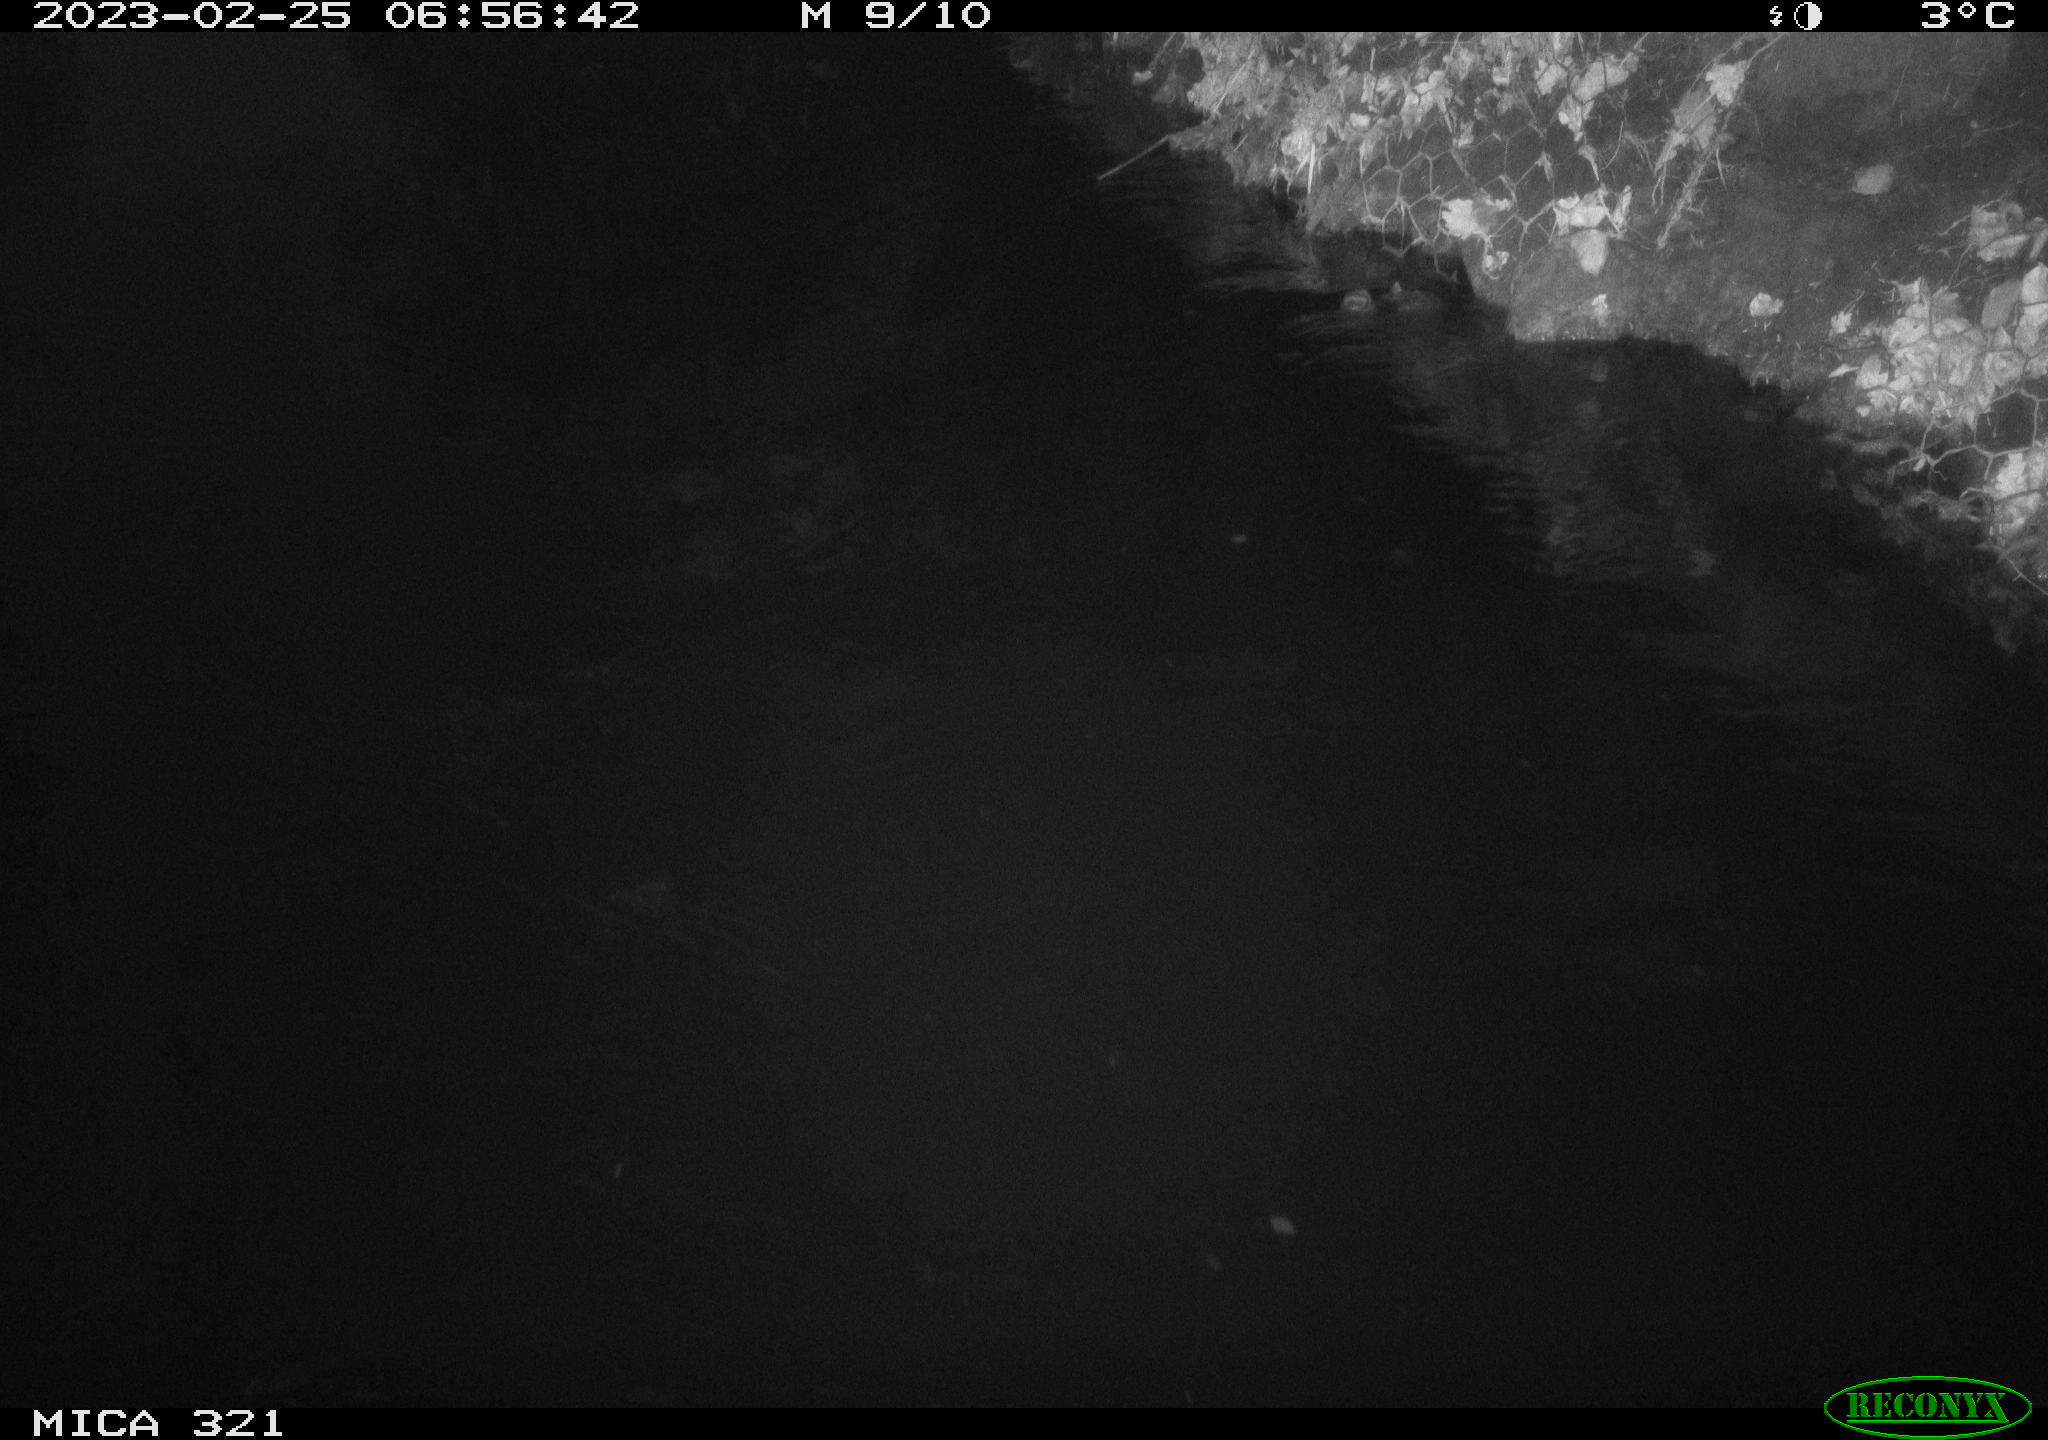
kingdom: Animalia
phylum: Chordata
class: Aves
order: Anseriformes
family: Anatidae
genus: Anas
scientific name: Anas
